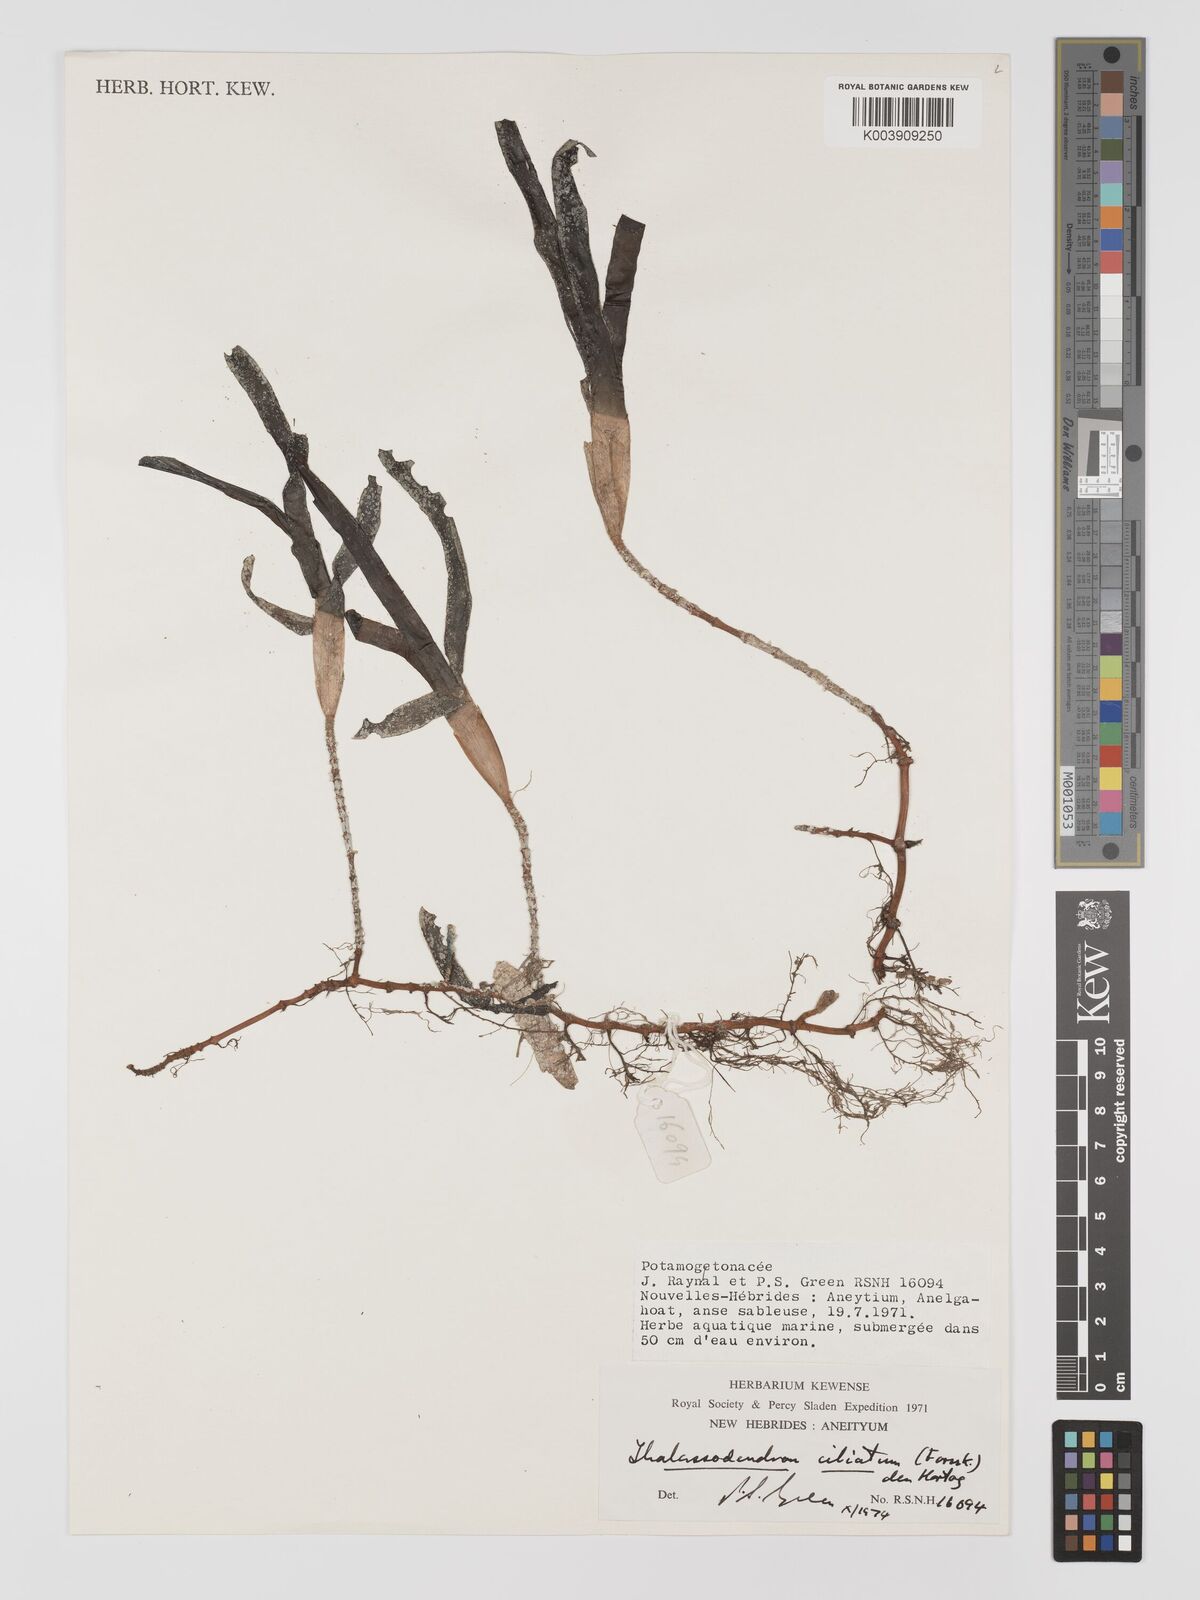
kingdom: Plantae
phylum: Tracheophyta
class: Liliopsida
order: Alismatales
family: Cymodoceaceae
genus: Thalassodendron
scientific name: Thalassodendron ciliatum
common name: Species code: tc
